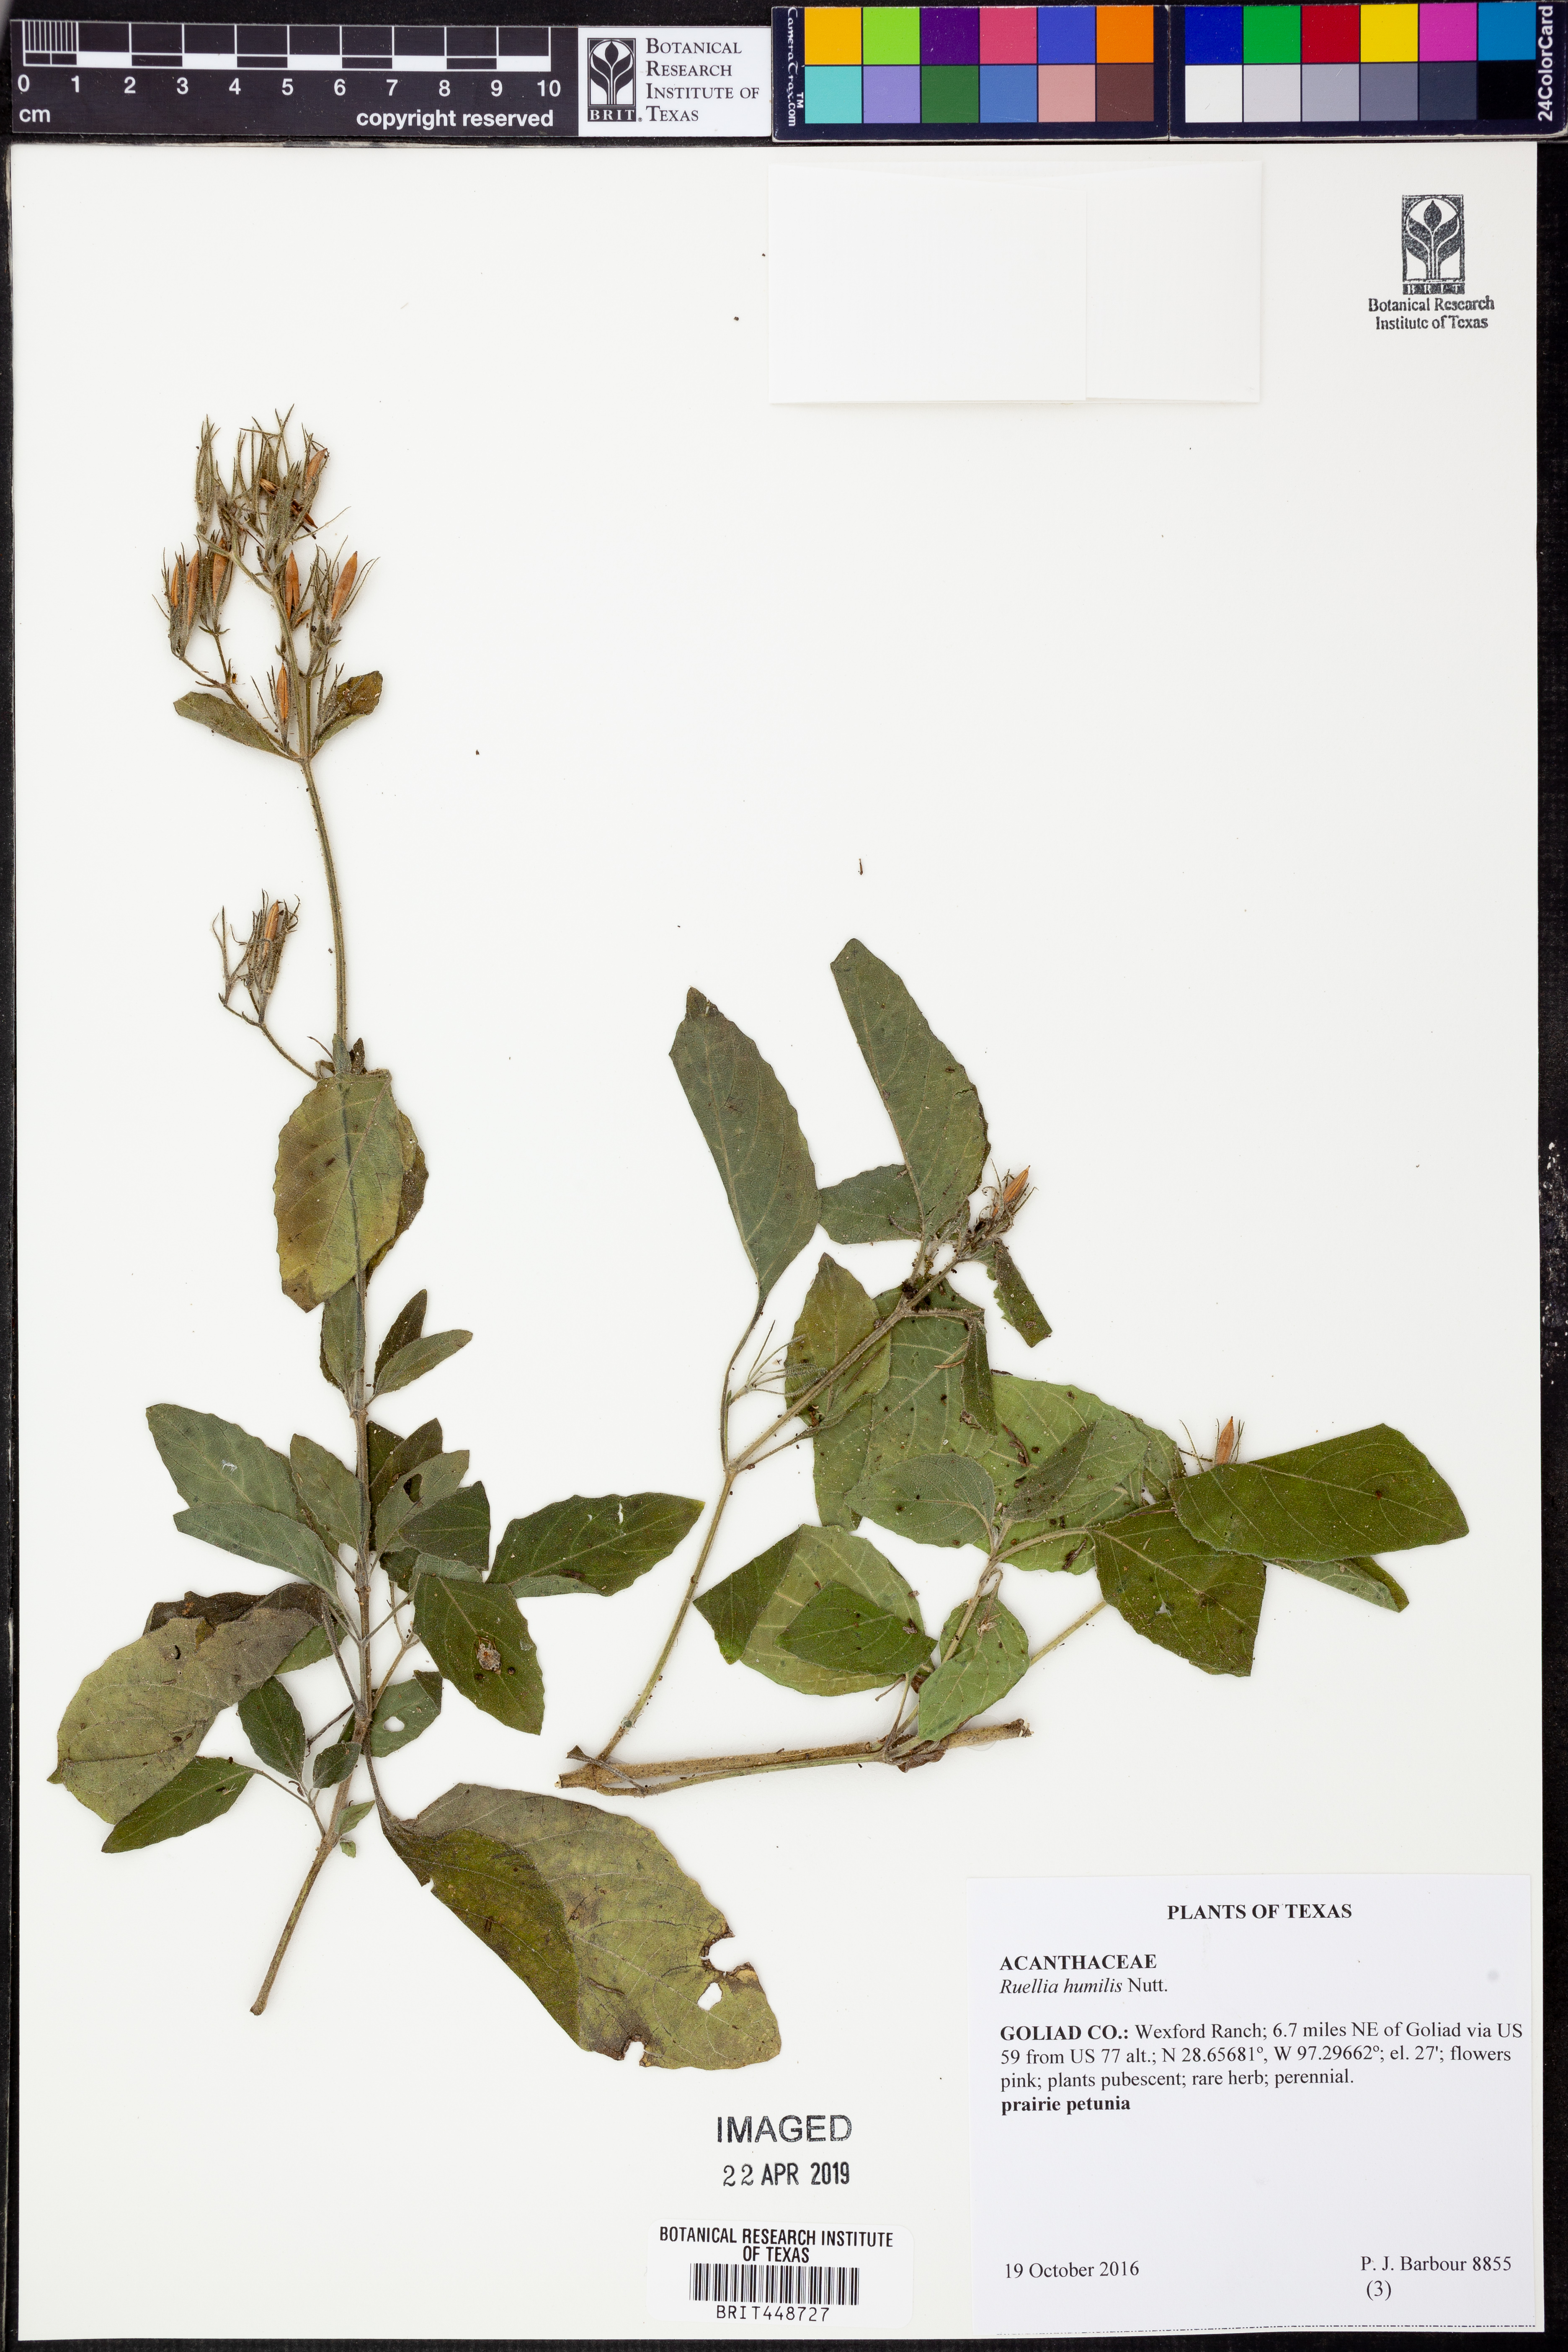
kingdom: Plantae
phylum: Tracheophyta
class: Magnoliopsida
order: Lamiales
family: Acanthaceae
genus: Ruellia
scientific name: Ruellia humilis
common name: Fringe-leaf ruellia
